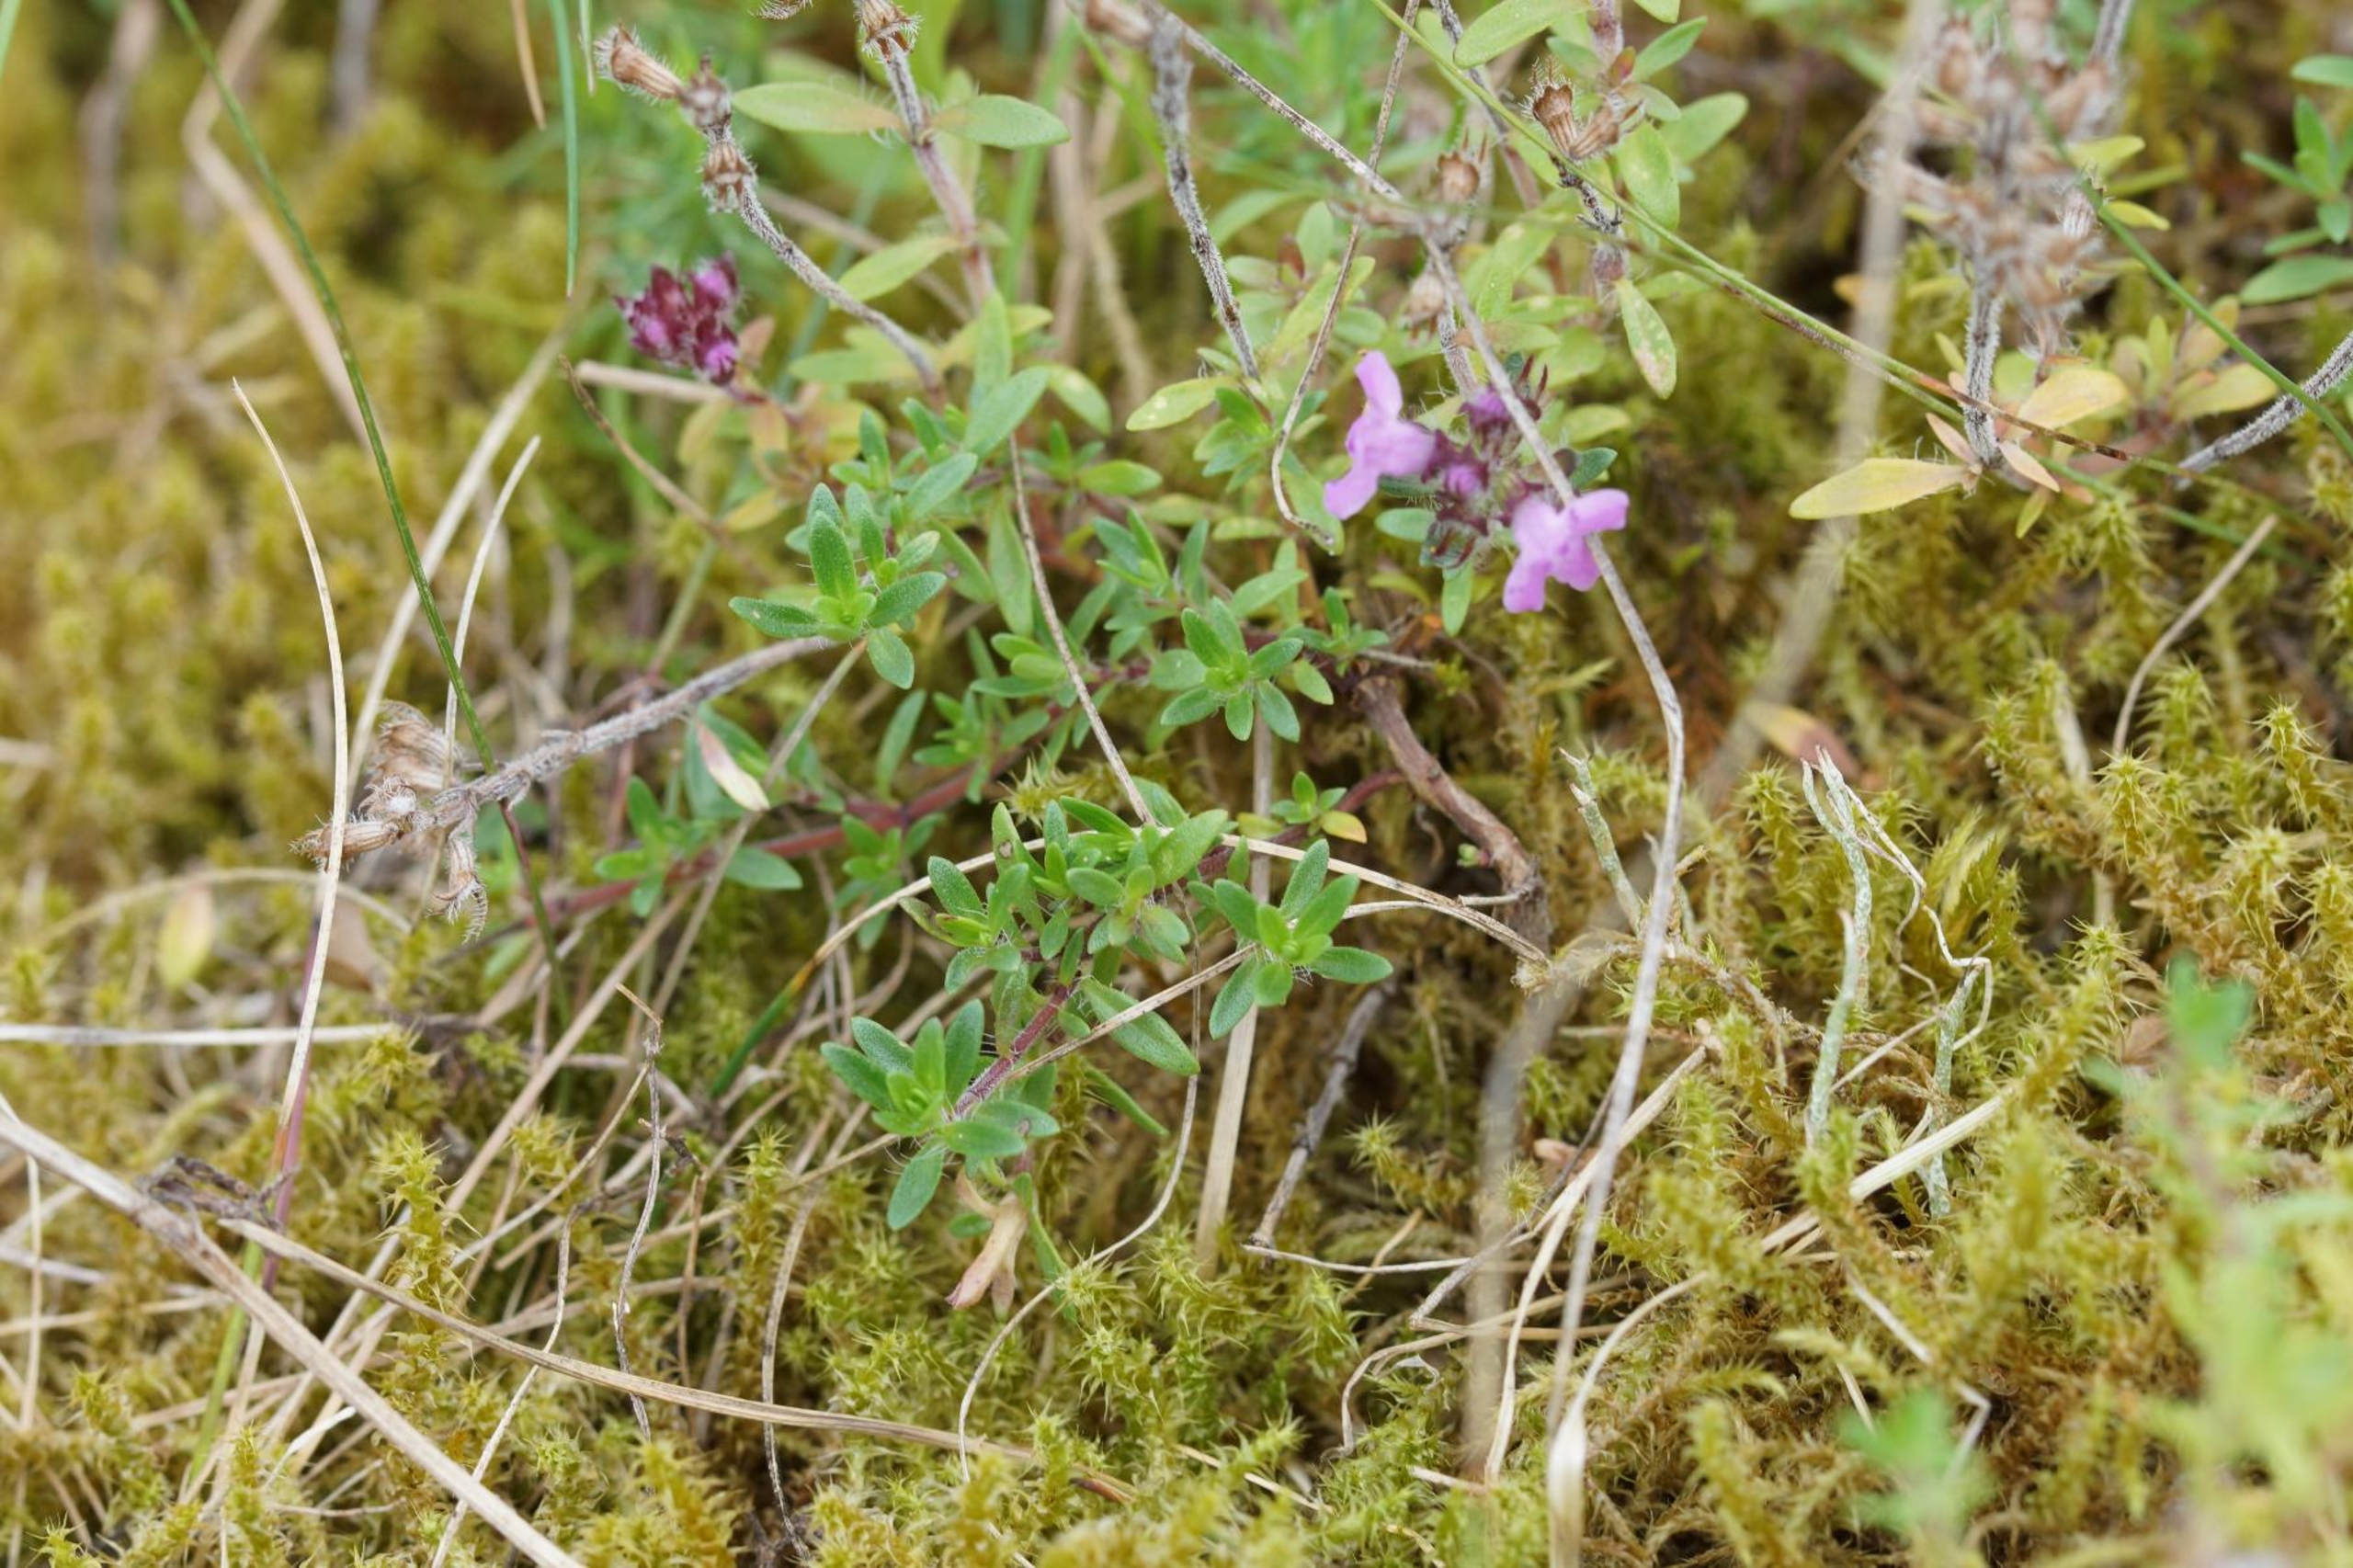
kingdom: Plantae
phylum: Tracheophyta
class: Magnoliopsida
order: Lamiales
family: Lamiaceae
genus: Thymus
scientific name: Thymus serpyllum
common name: Smalbladet timian
